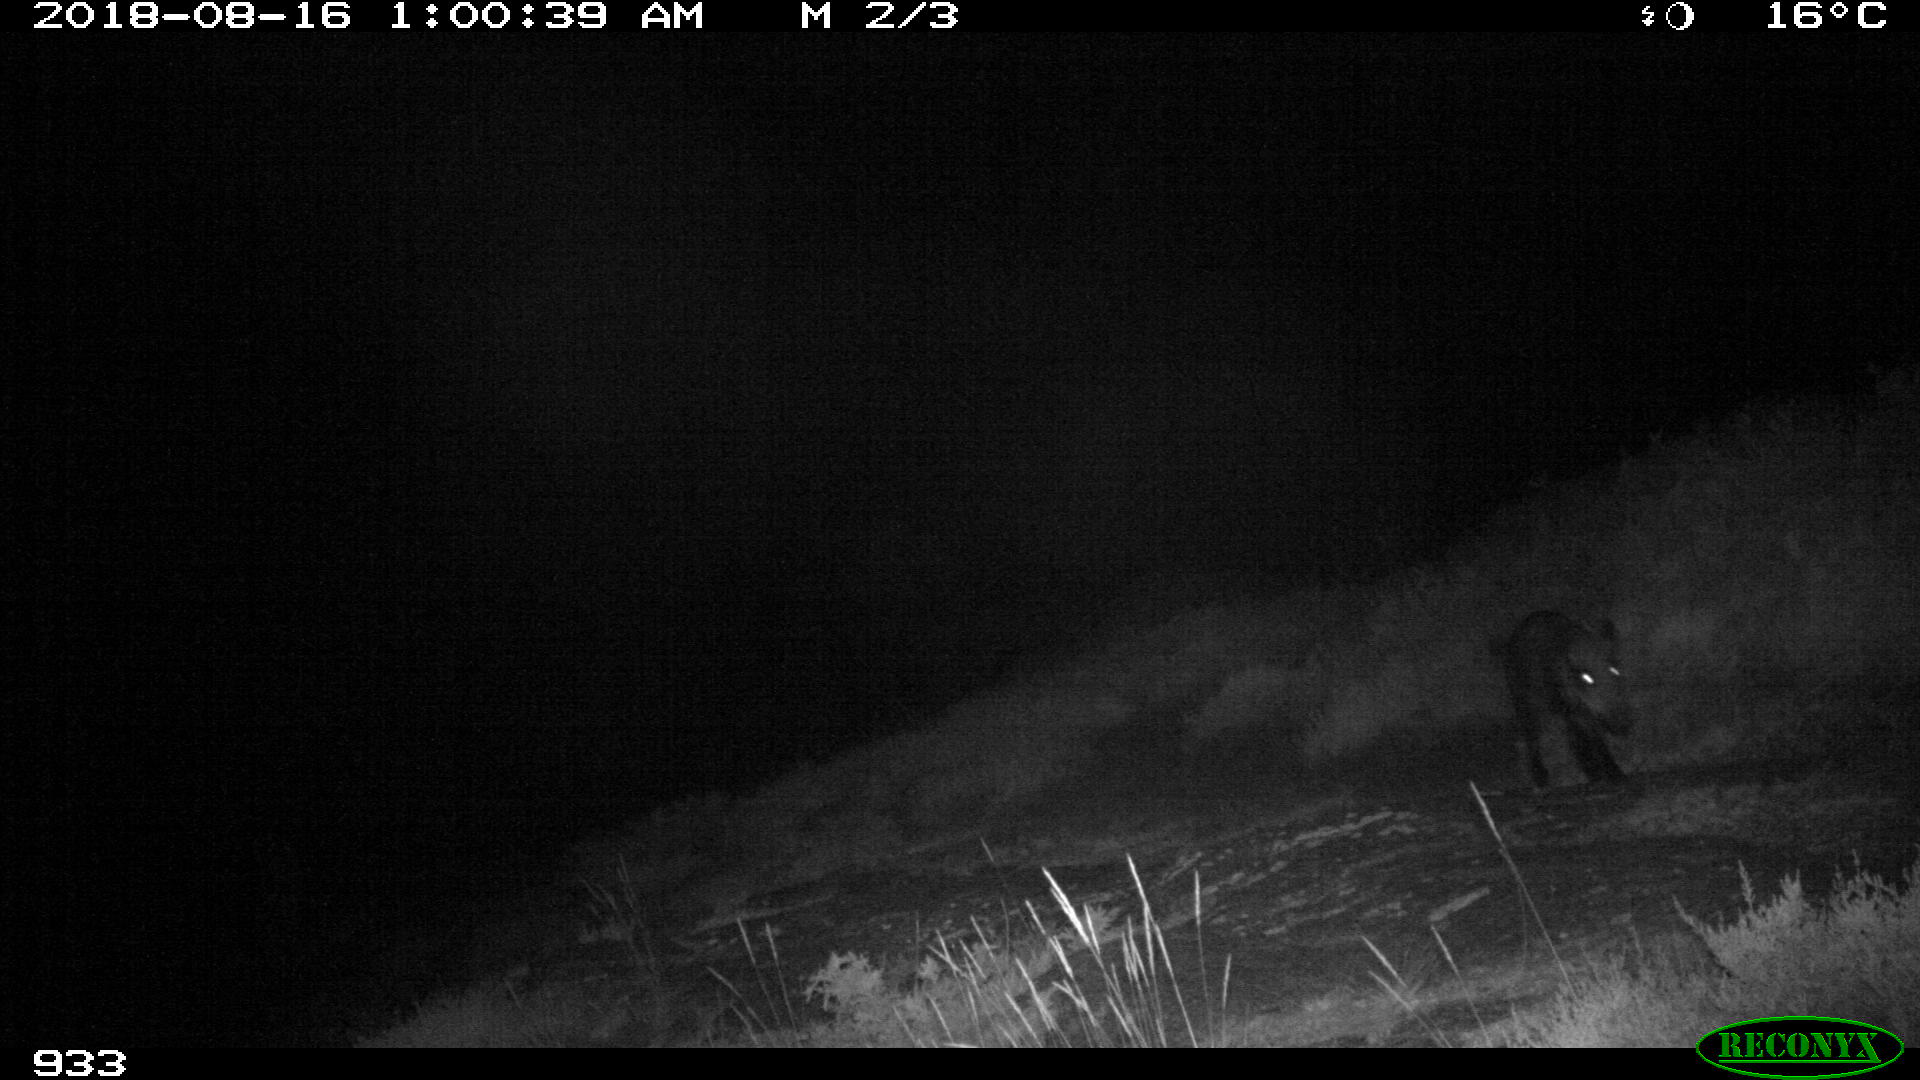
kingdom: Animalia
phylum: Chordata
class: Mammalia
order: Artiodactyla
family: Suidae
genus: Sus
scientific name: Sus scrofa
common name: Wild boar
